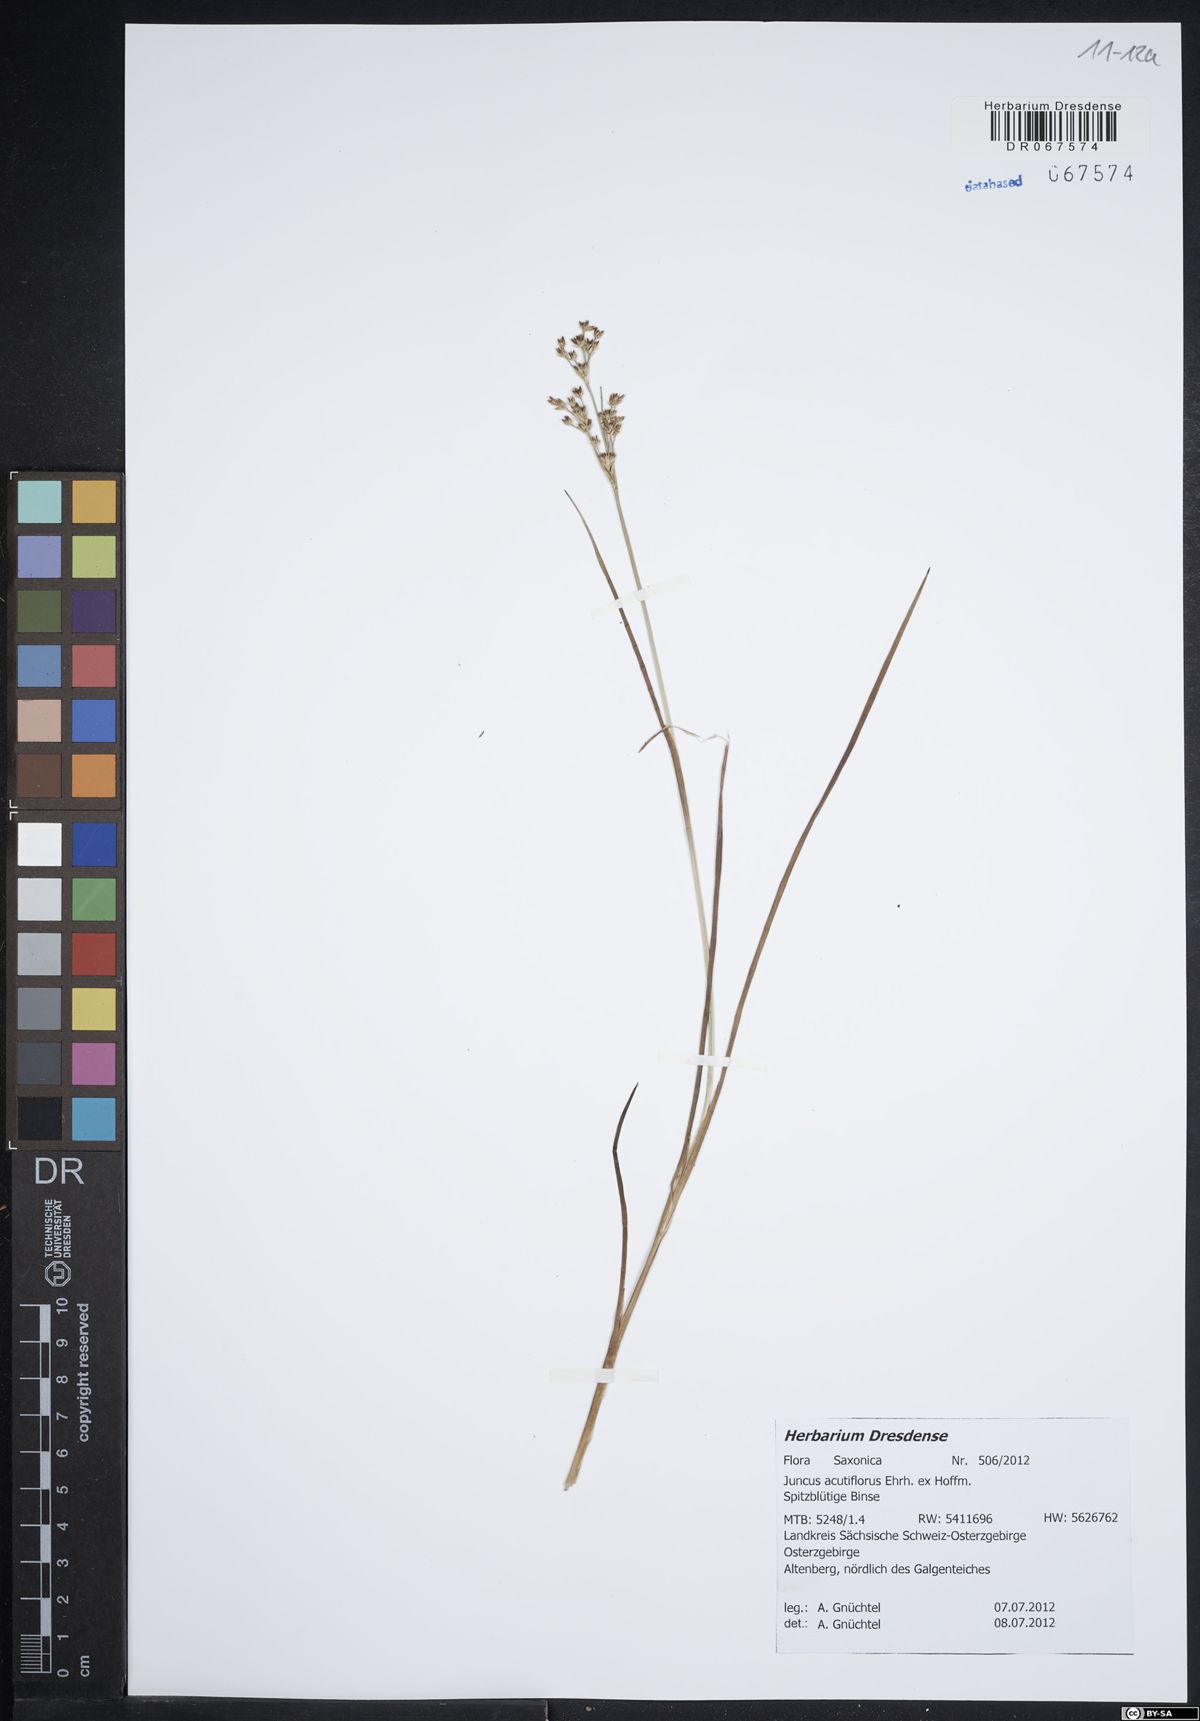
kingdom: Plantae
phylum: Tracheophyta
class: Liliopsida
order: Poales
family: Juncaceae
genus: Juncus
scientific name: Juncus acutiflorus
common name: Sharp-flowered rush
